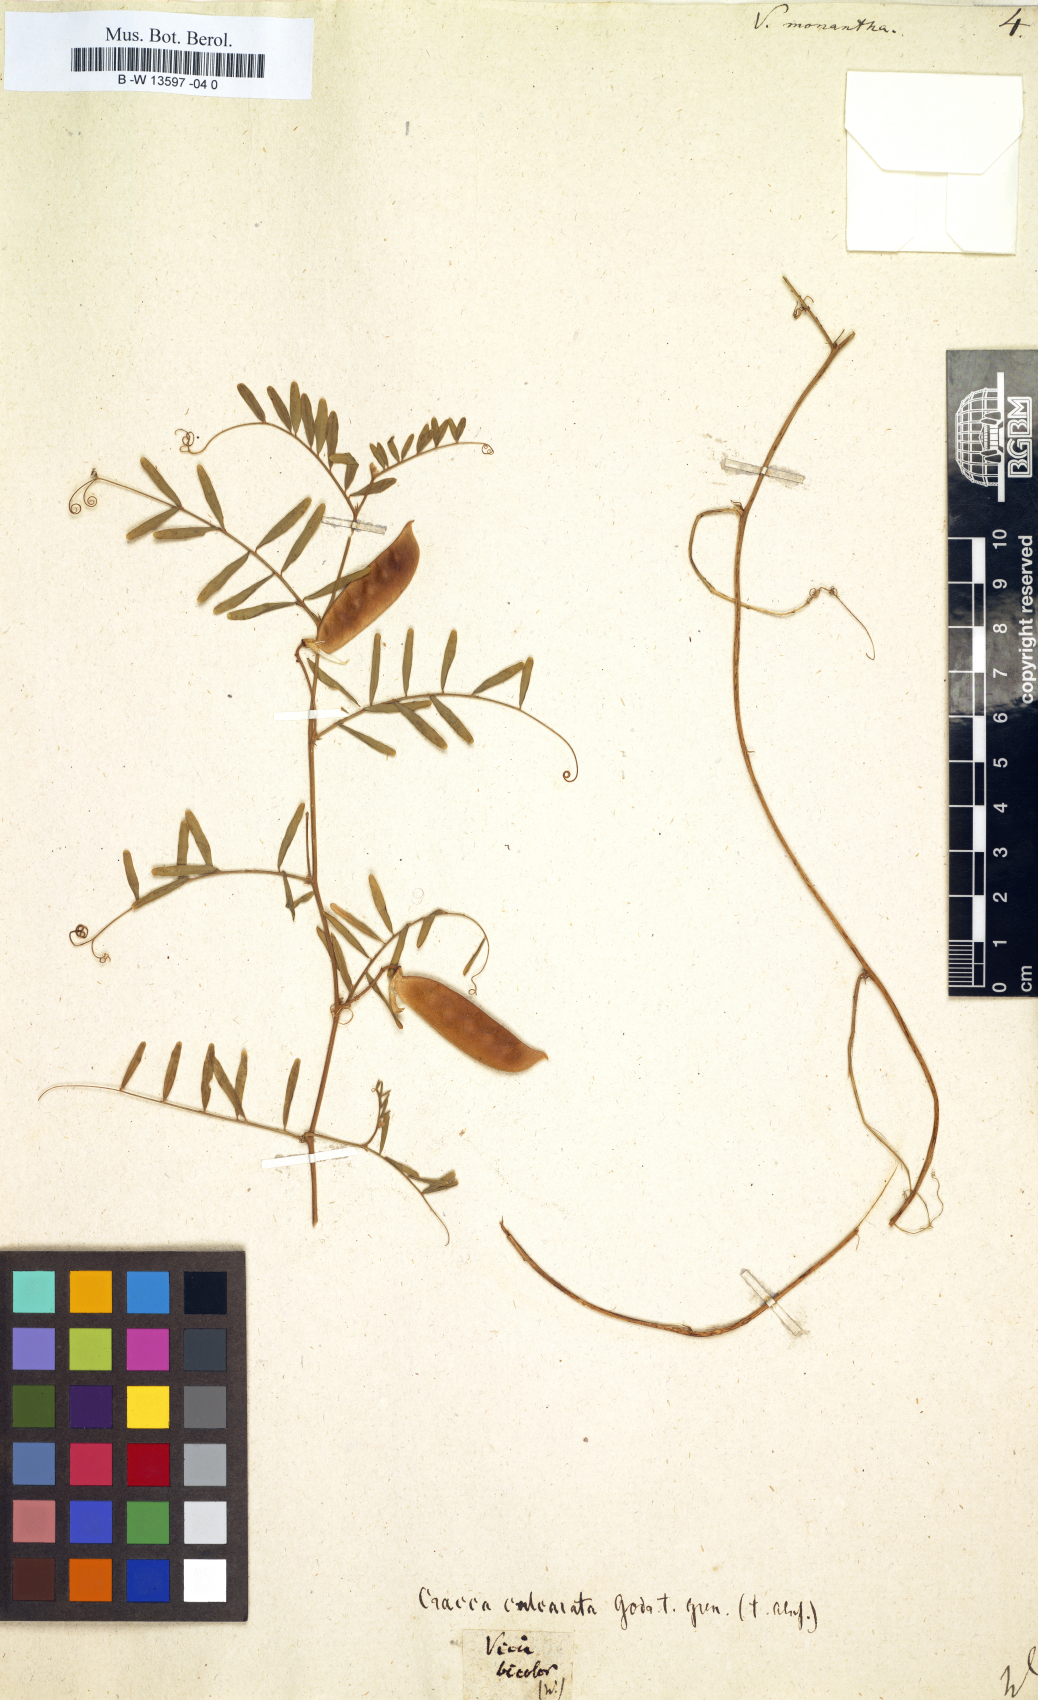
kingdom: Plantae
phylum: Tracheophyta
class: Magnoliopsida
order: Fabales
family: Fabaceae
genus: Vicia
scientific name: Vicia monantha
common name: Barn vetch
